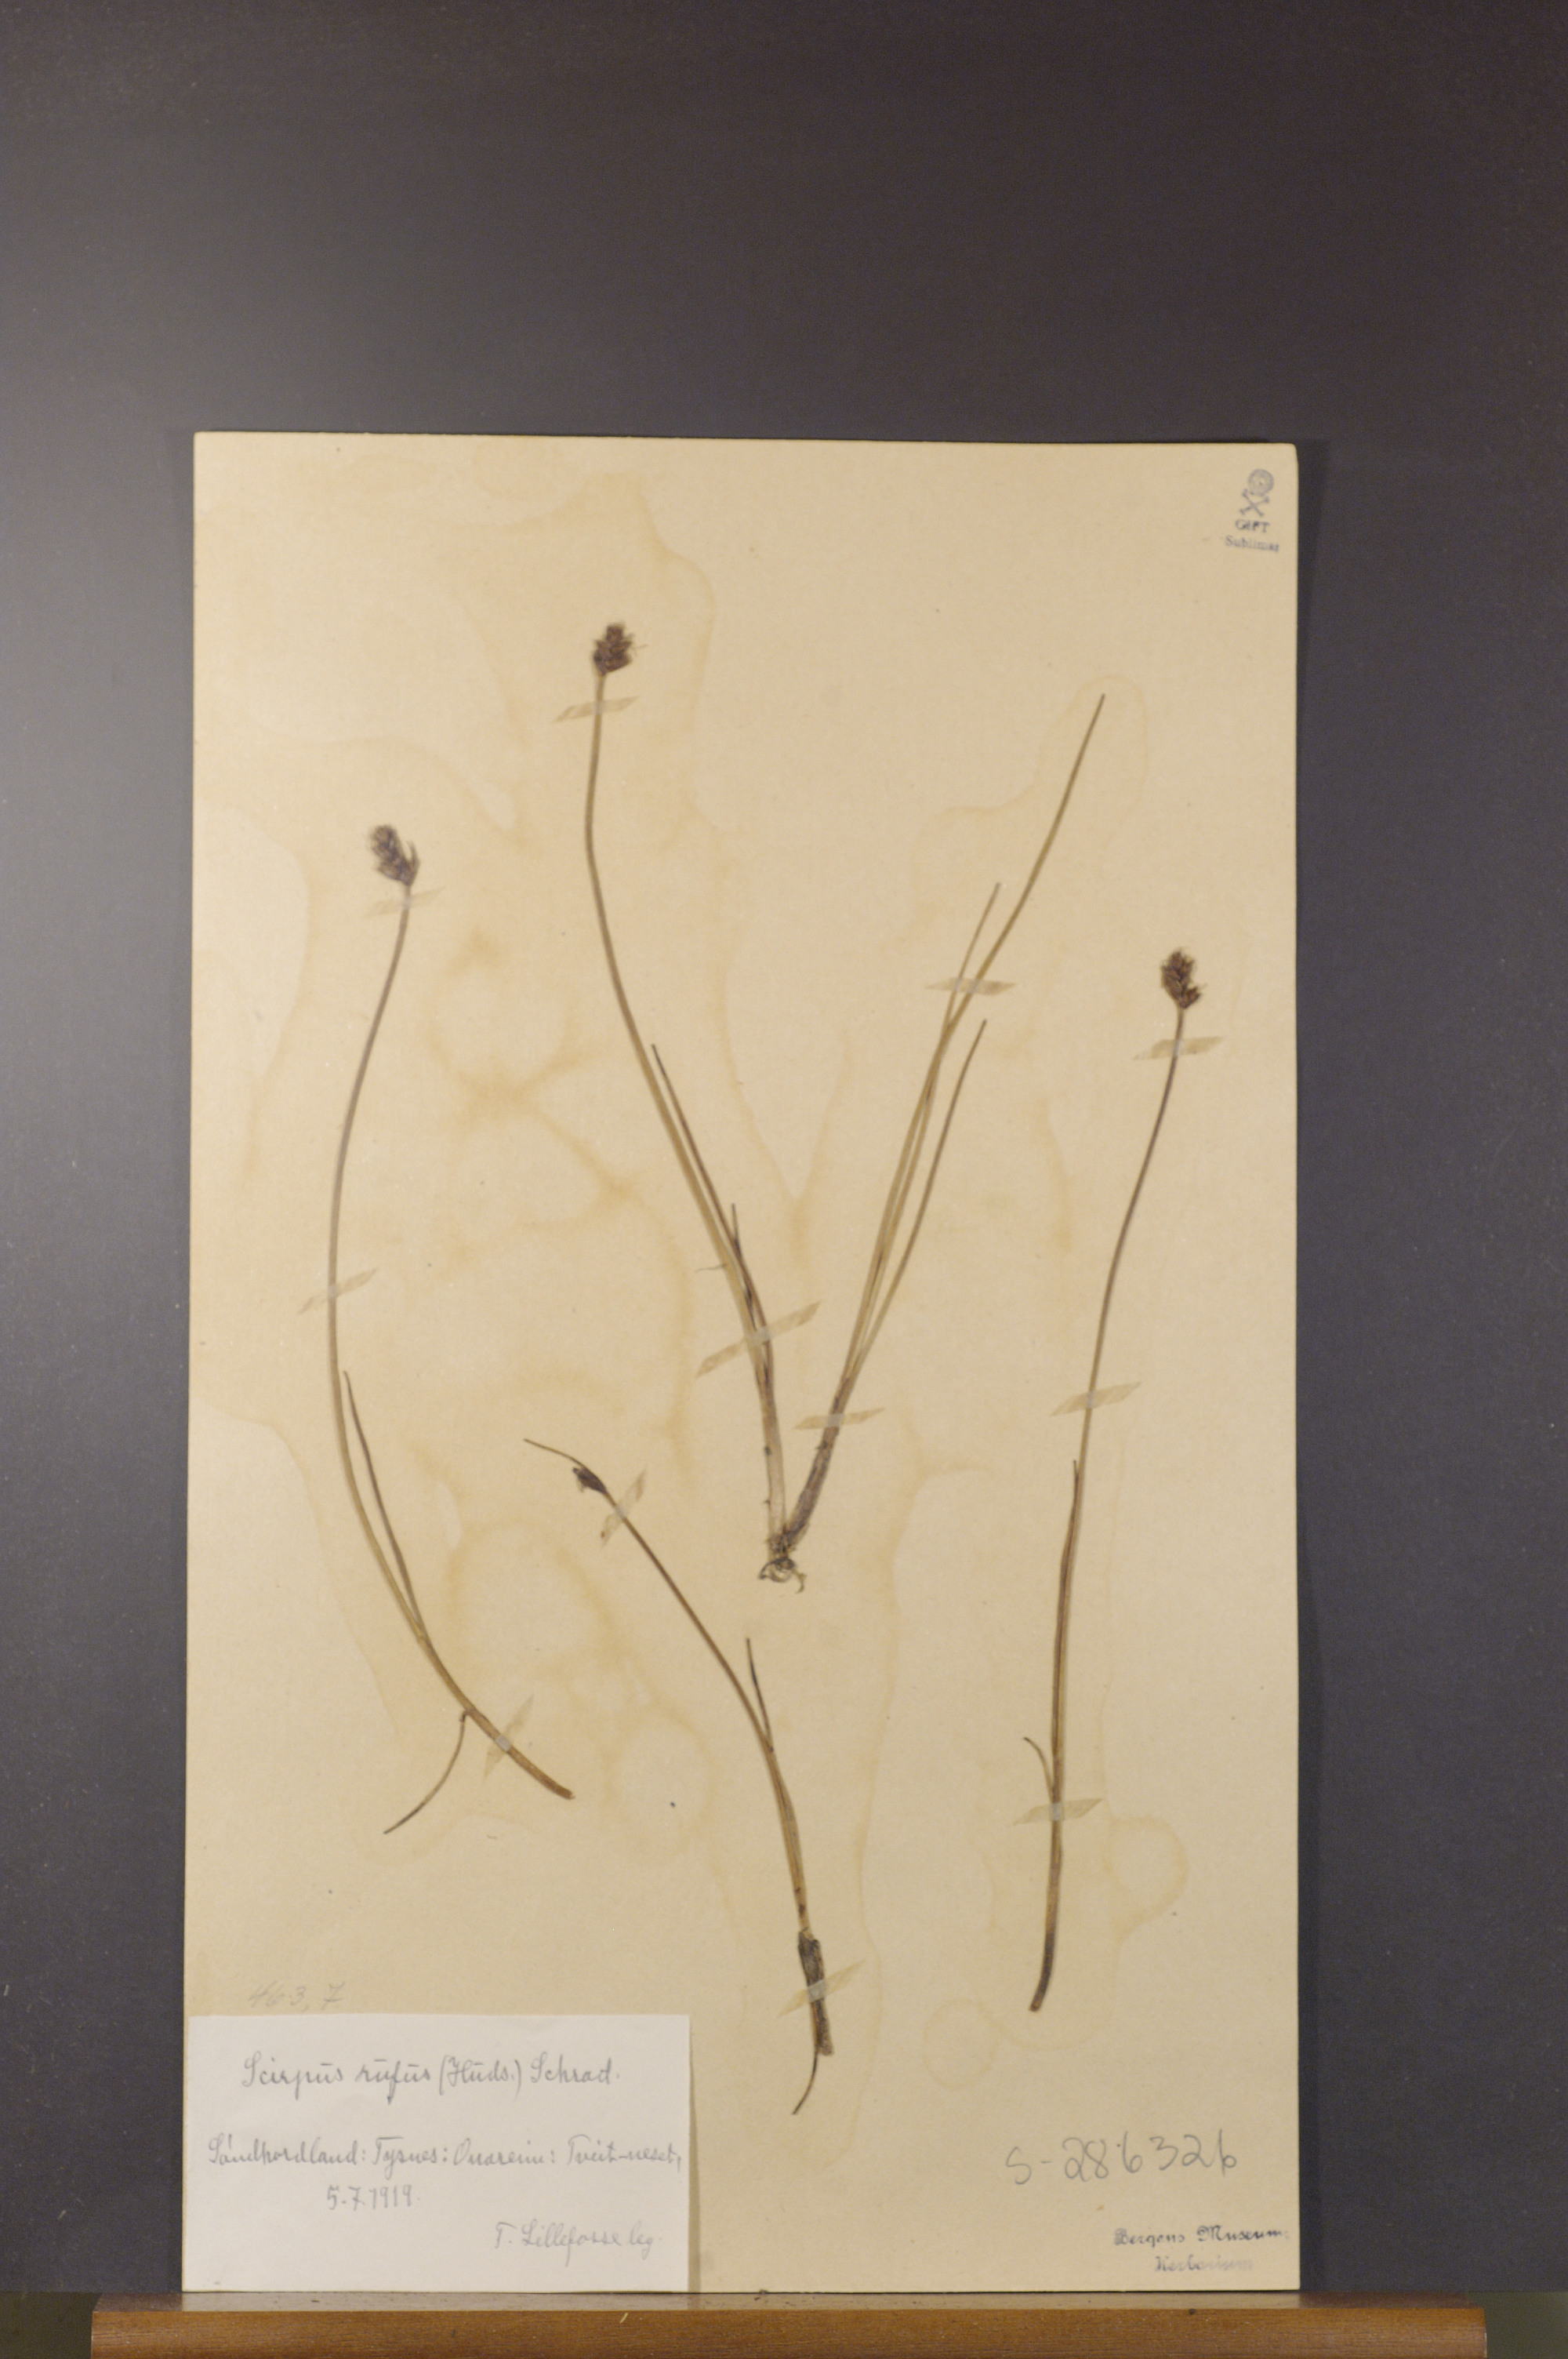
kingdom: Plantae
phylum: Tracheophyta
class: Liliopsida
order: Poales
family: Cyperaceae
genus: Blysmus
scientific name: Blysmus rufus
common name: Saltmarsh flat-sedge
